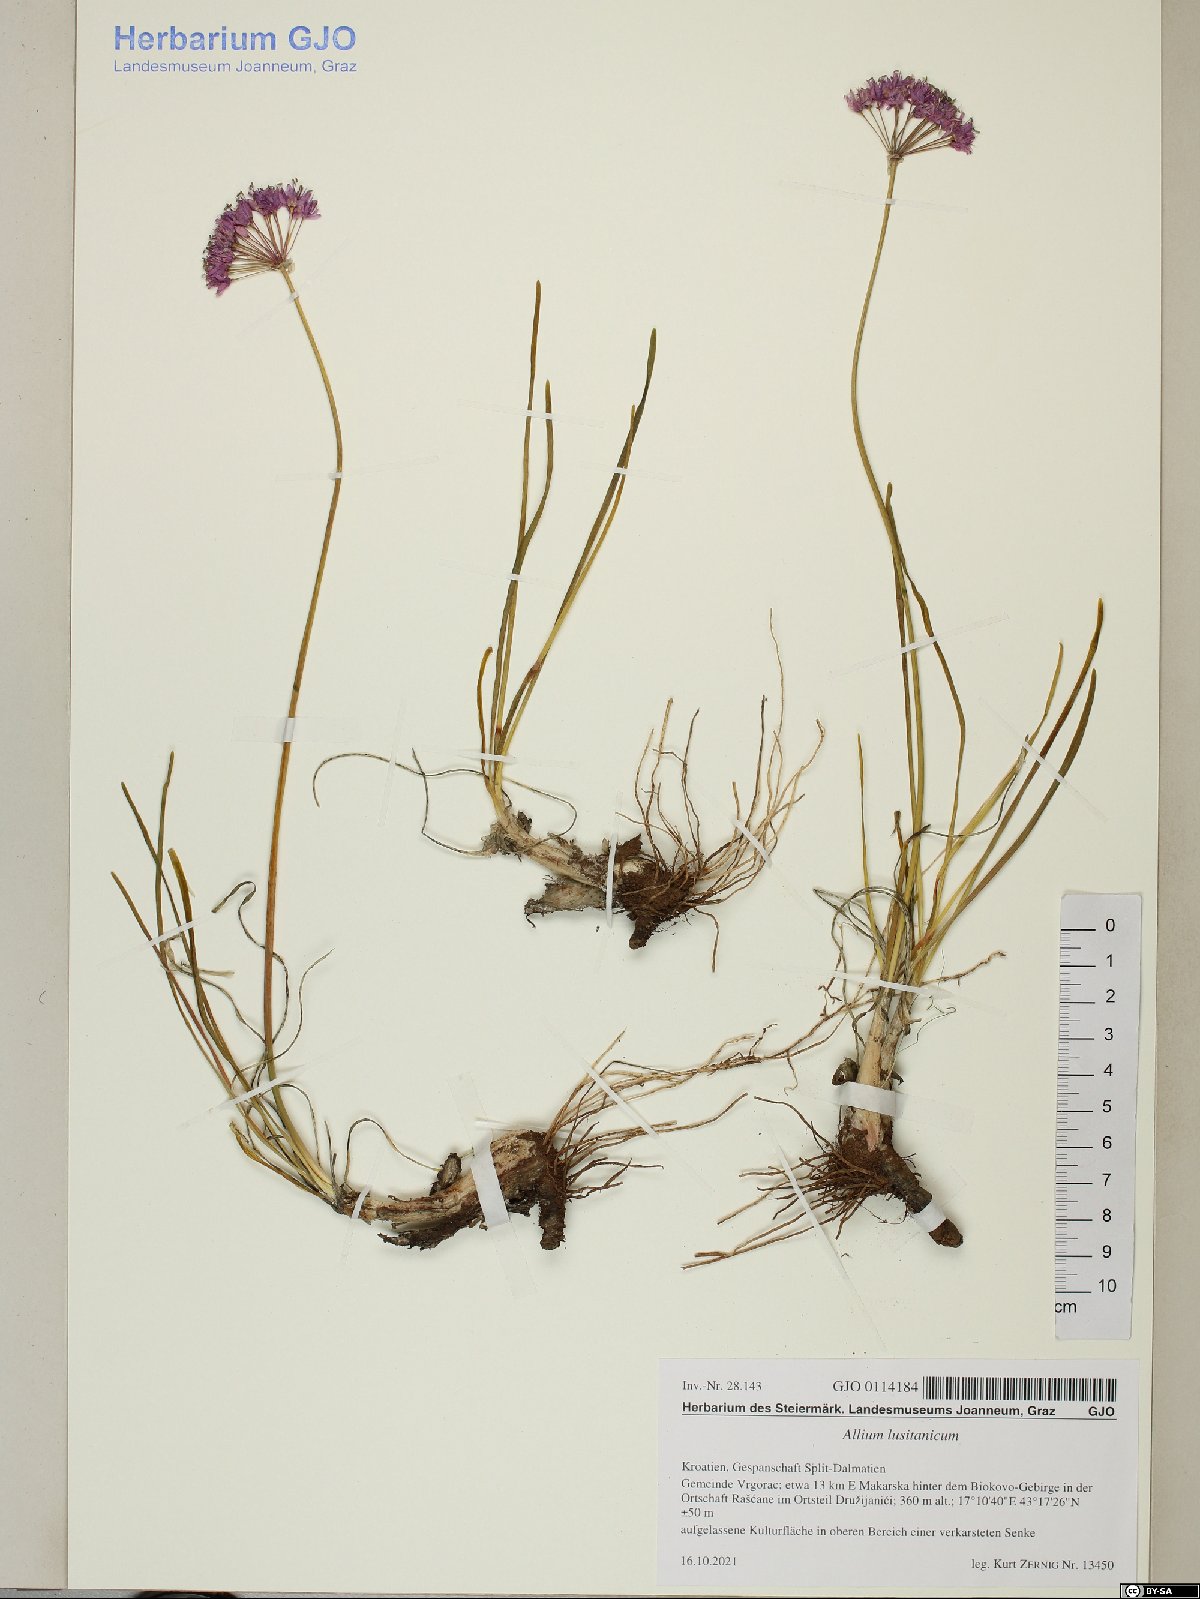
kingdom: Plantae
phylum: Tracheophyta
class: Liliopsida
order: Asparagales
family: Amaryllidaceae
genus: Allium
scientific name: Allium lusitanicum
